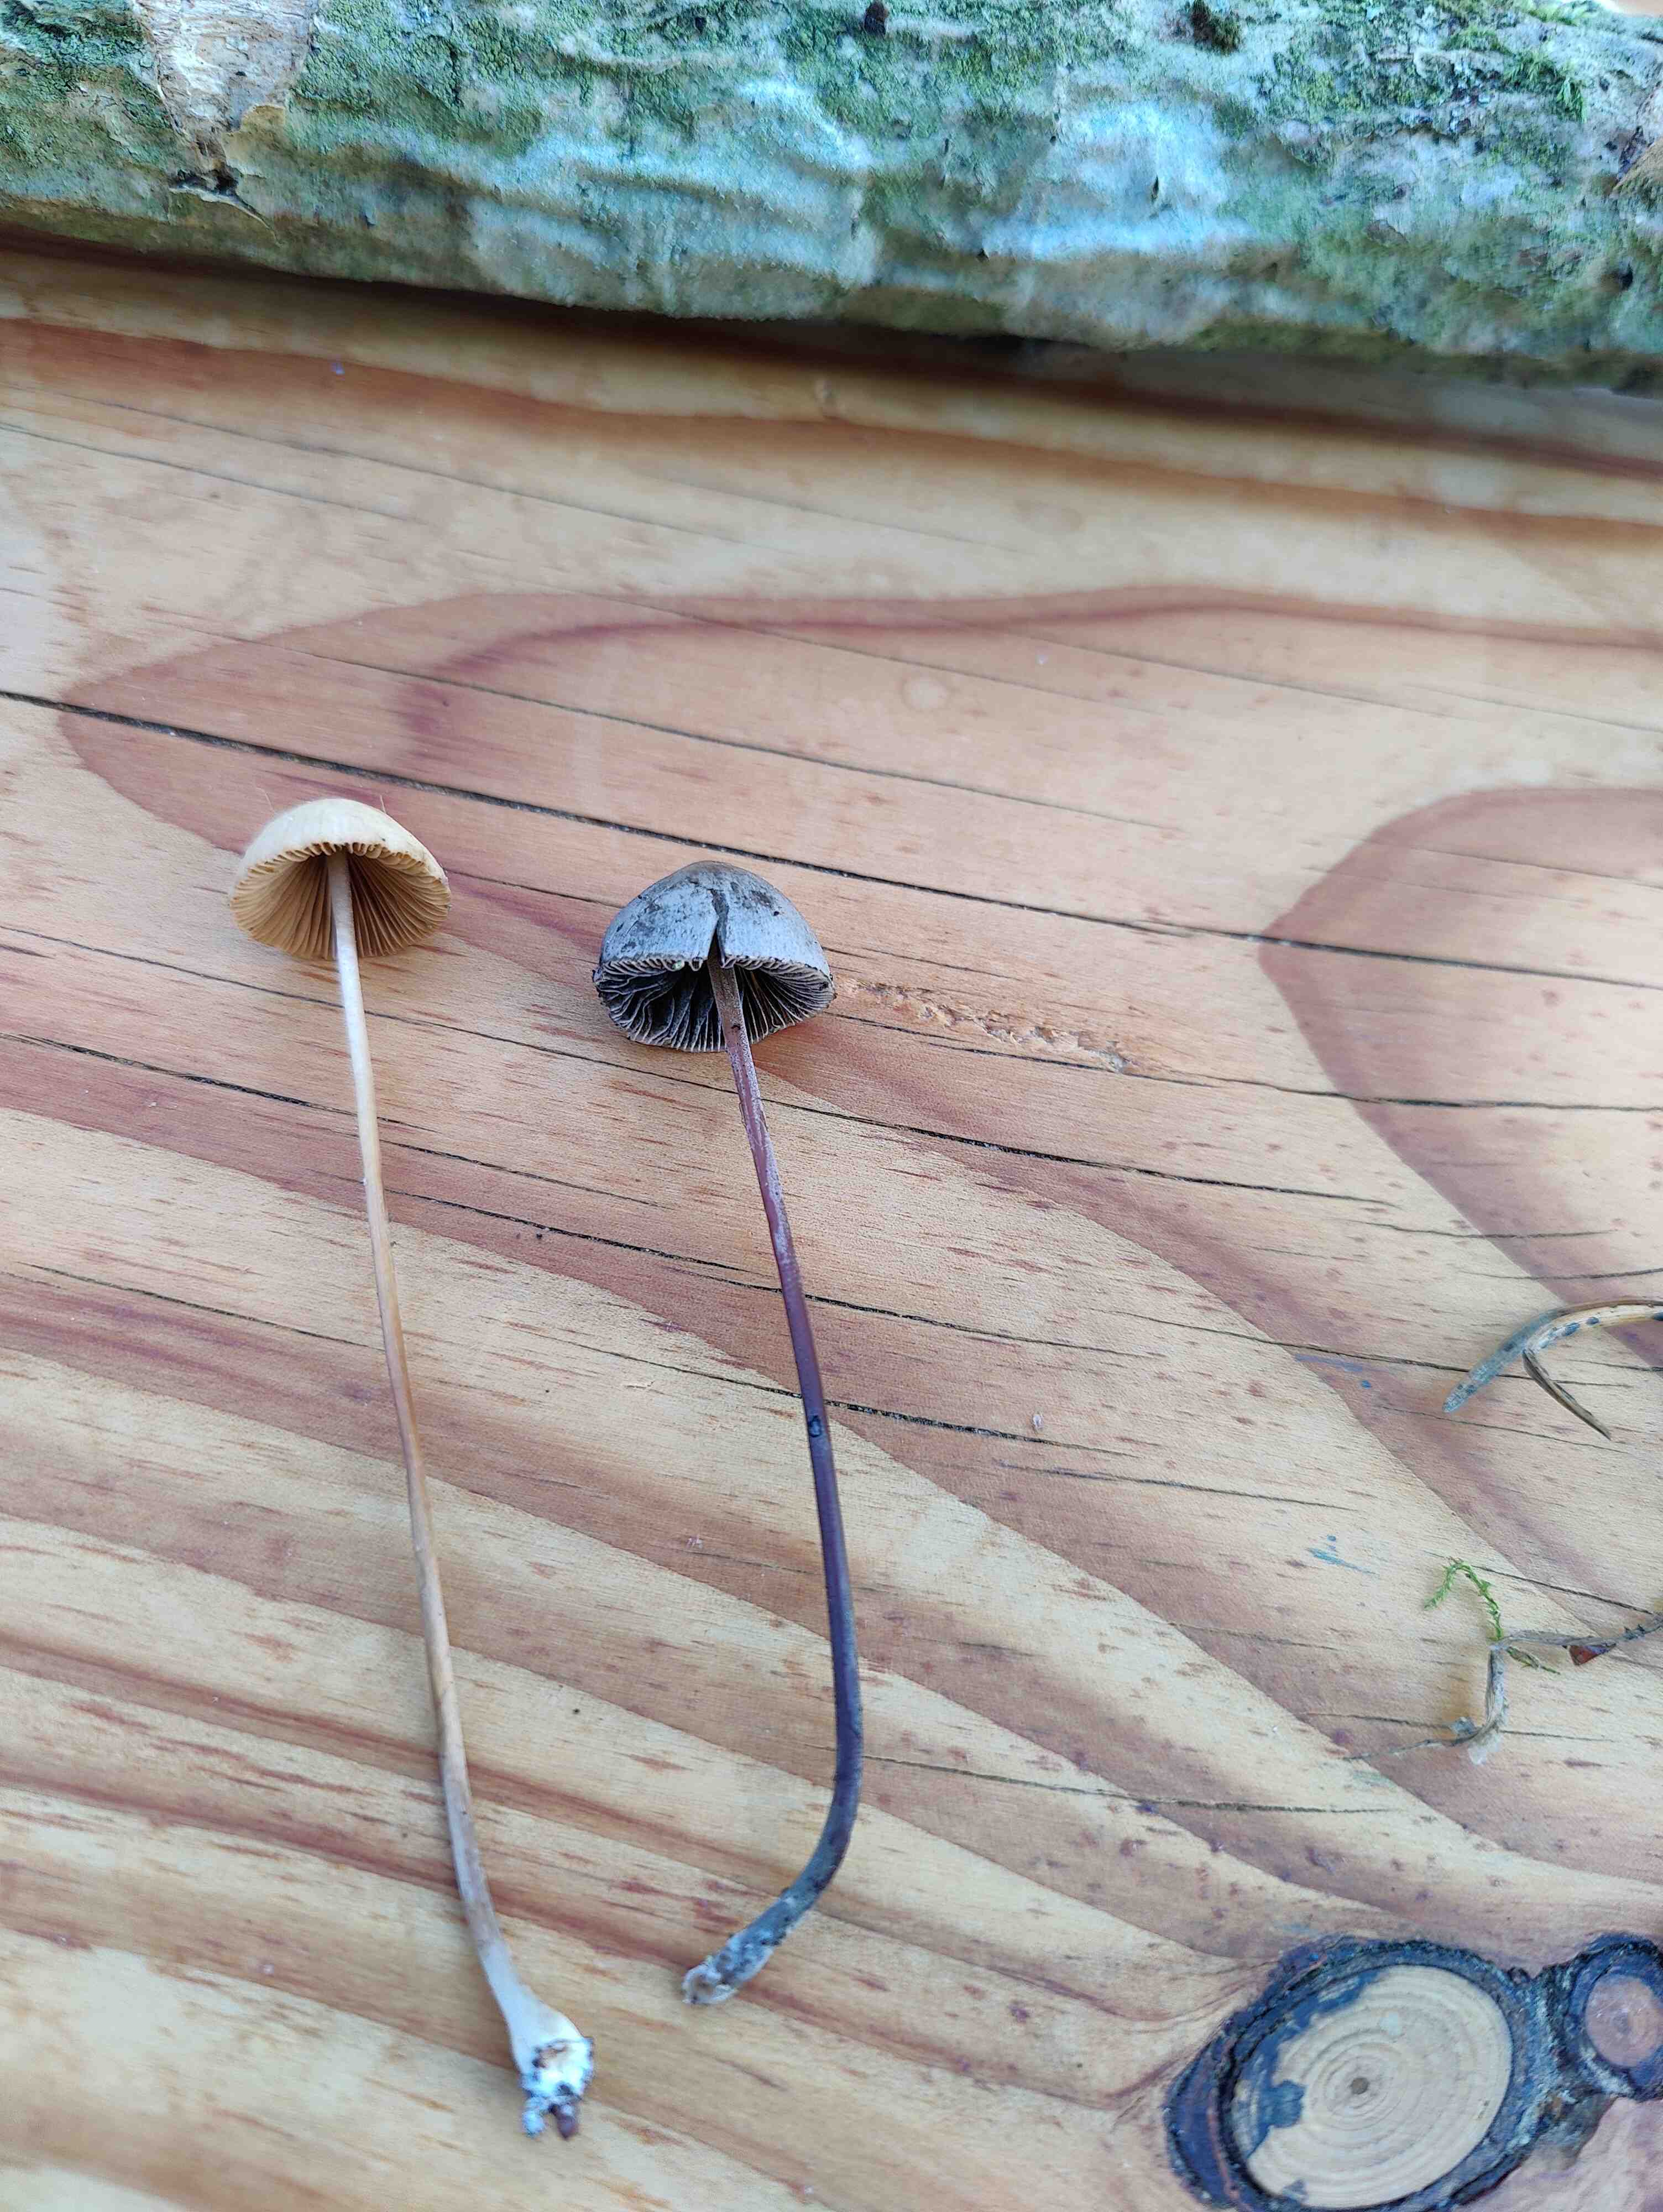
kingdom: Fungi
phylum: Basidiomycota
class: Agaricomycetes
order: Agaricales
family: Bolbitiaceae
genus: Panaeolus
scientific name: Panaeolus papilionaceus
